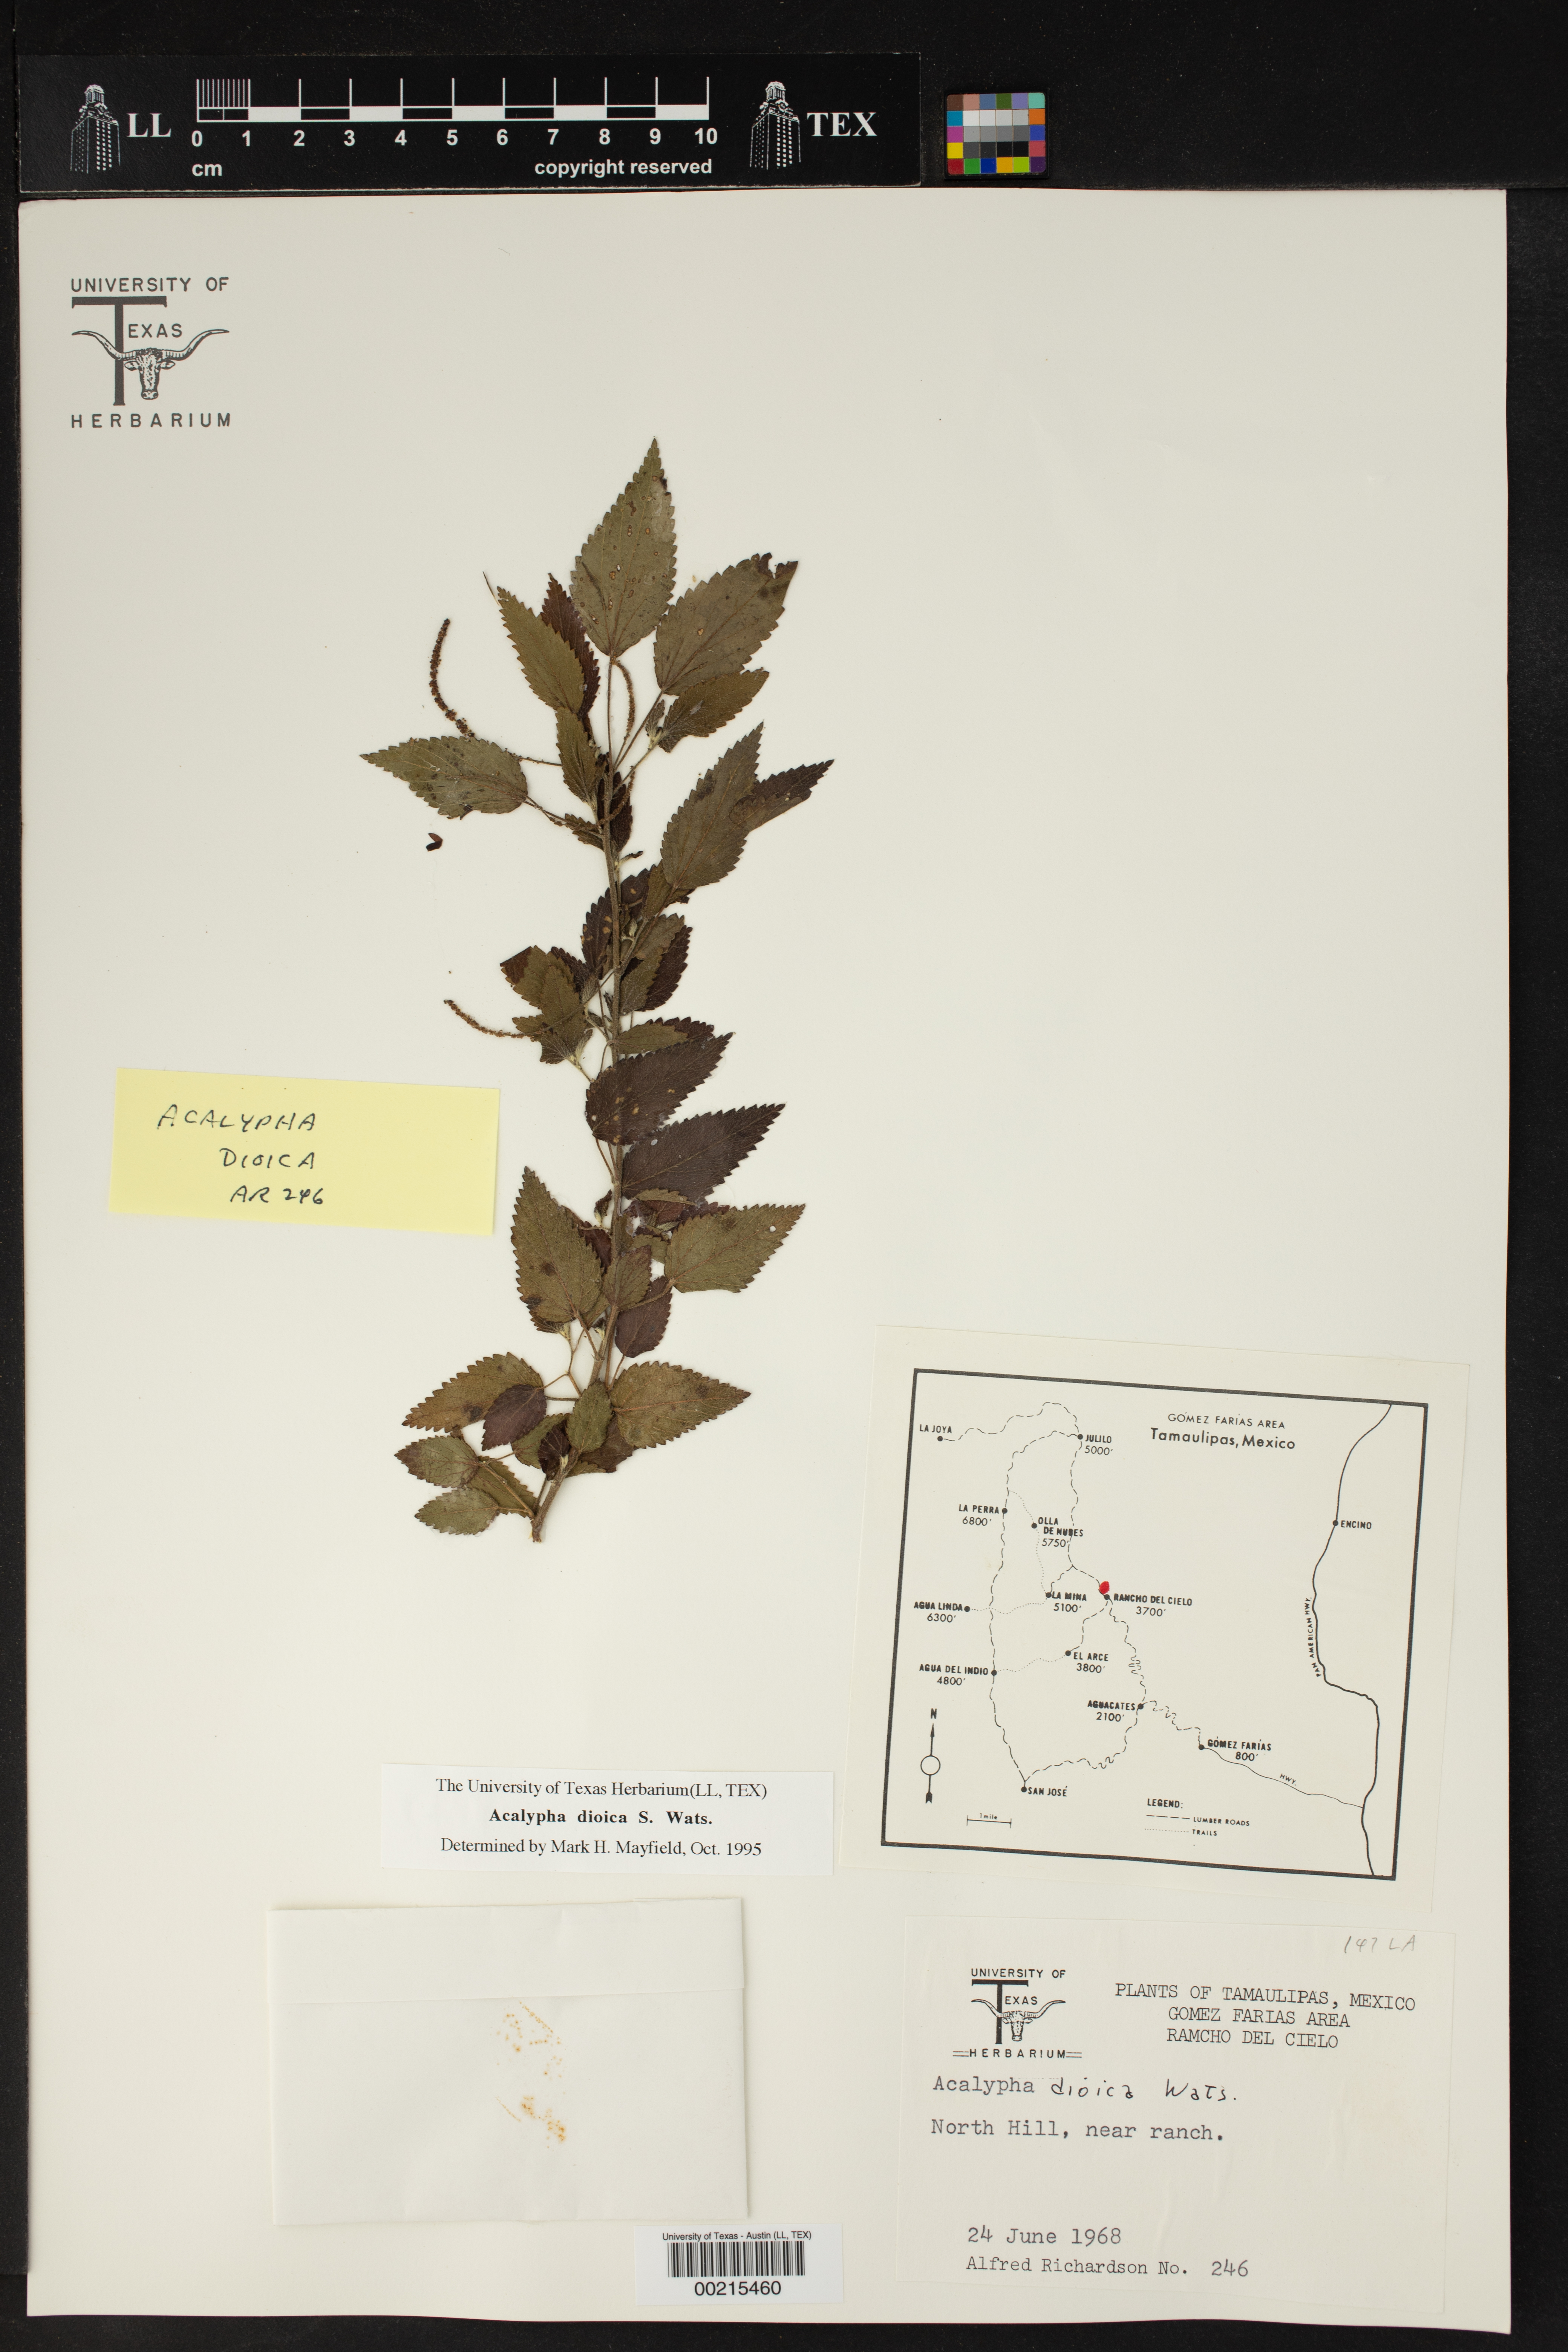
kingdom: Plantae
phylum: Tracheophyta
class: Magnoliopsida
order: Malpighiales
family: Euphorbiaceae
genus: Acalypha
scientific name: Acalypha dioica
